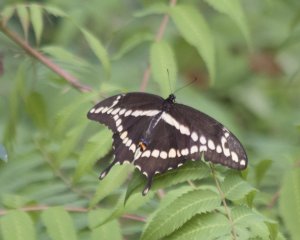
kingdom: Animalia
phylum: Arthropoda
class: Insecta
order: Lepidoptera
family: Papilionidae
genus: Papilio
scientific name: Papilio cresphontes
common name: Eastern Giant Swallowtail
